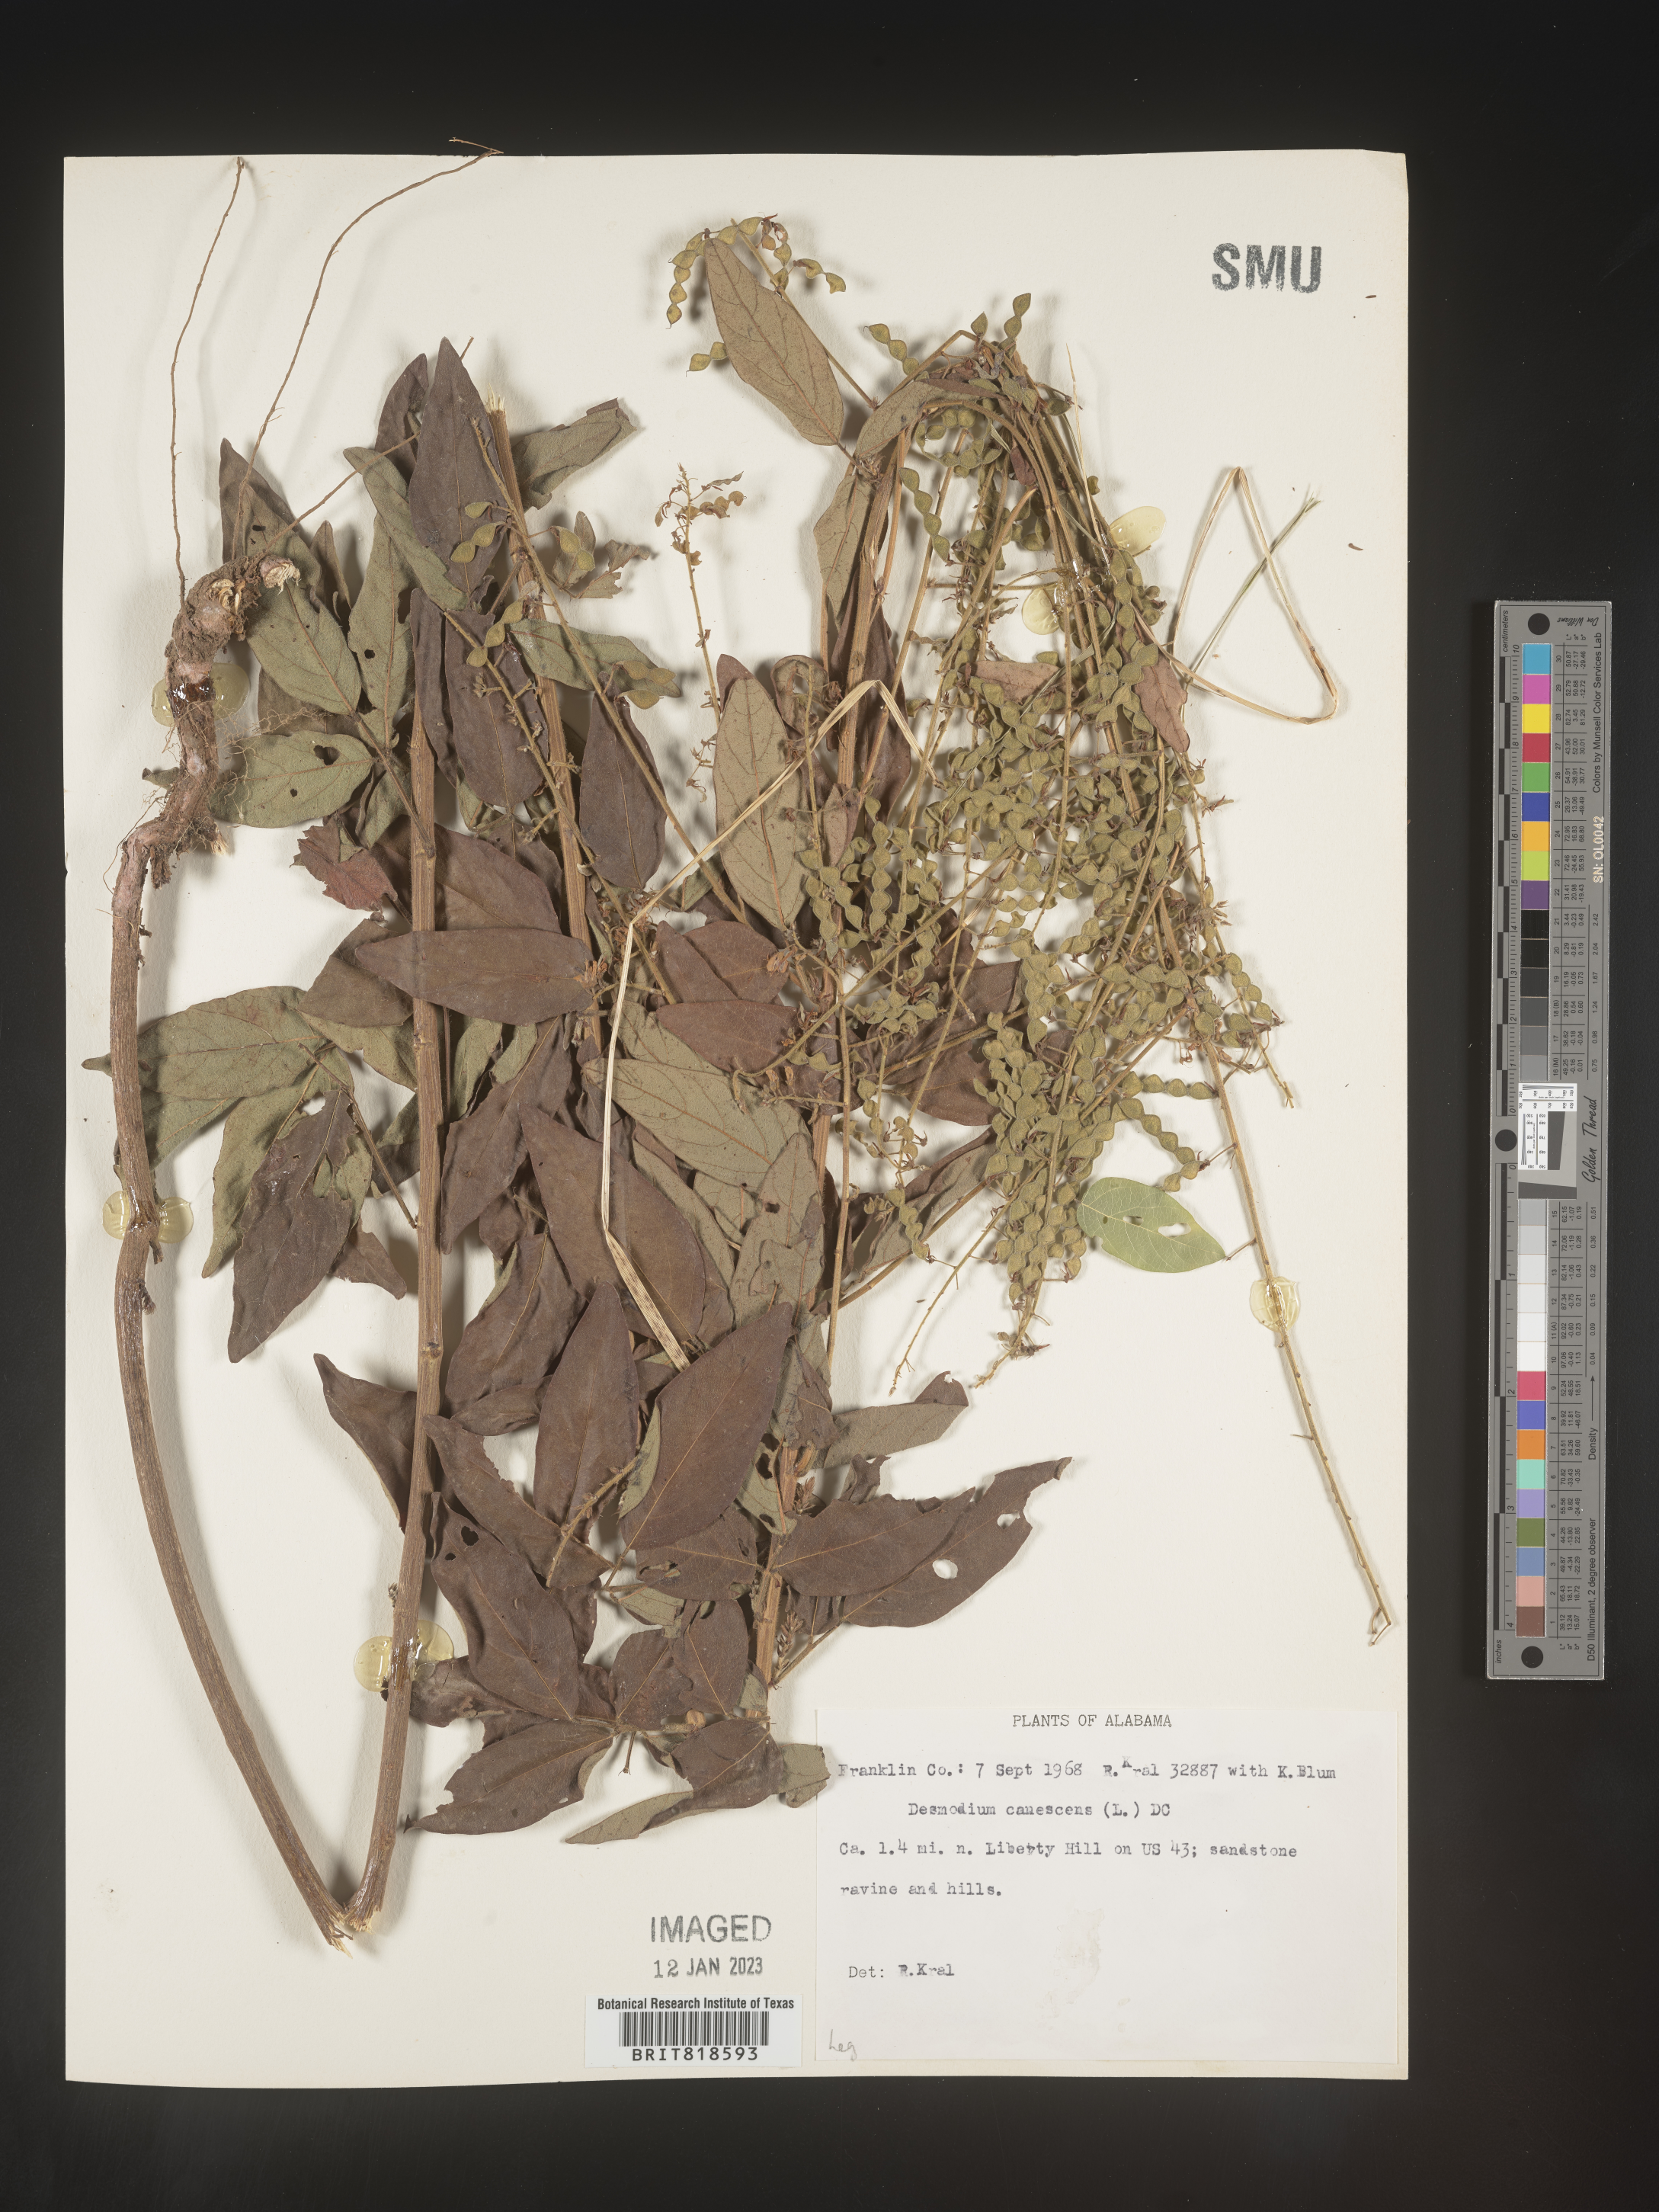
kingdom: Plantae
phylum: Tracheophyta
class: Magnoliopsida
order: Fabales
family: Fabaceae
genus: Desmodium
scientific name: Desmodium canescens
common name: Hoary tick-clover
